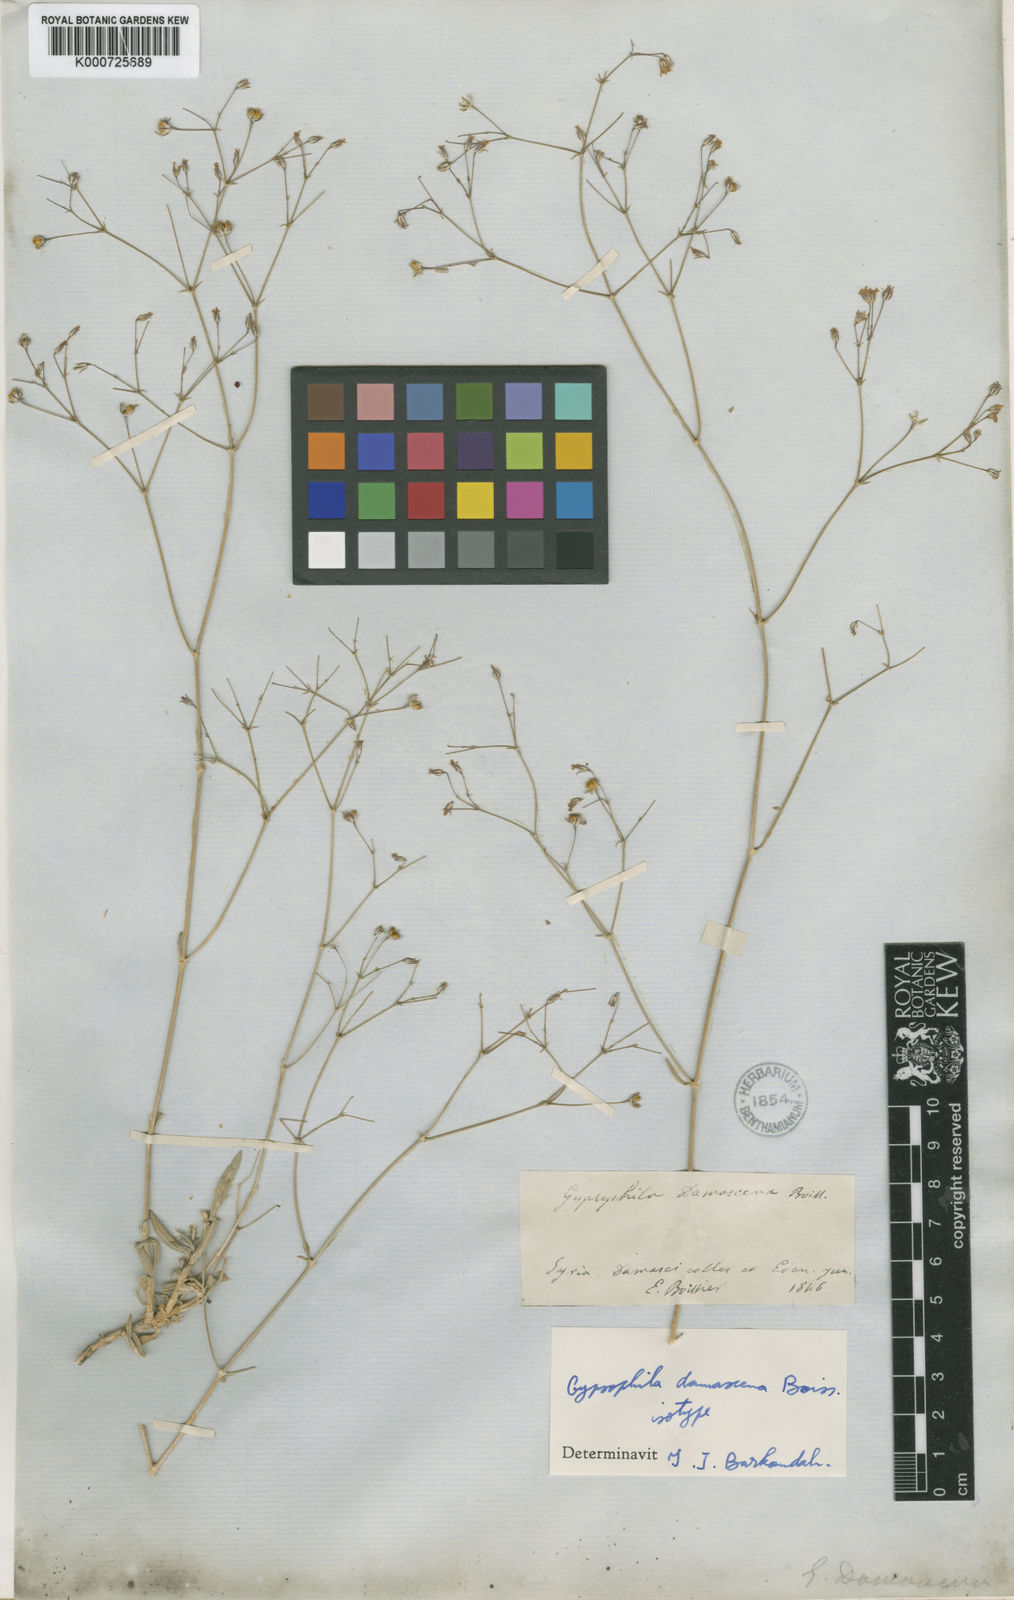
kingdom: Plantae
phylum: Tracheophyta
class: Magnoliopsida
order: Caryophyllales
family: Caryophyllaceae
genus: Gypsophila
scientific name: Gypsophila aucheri
